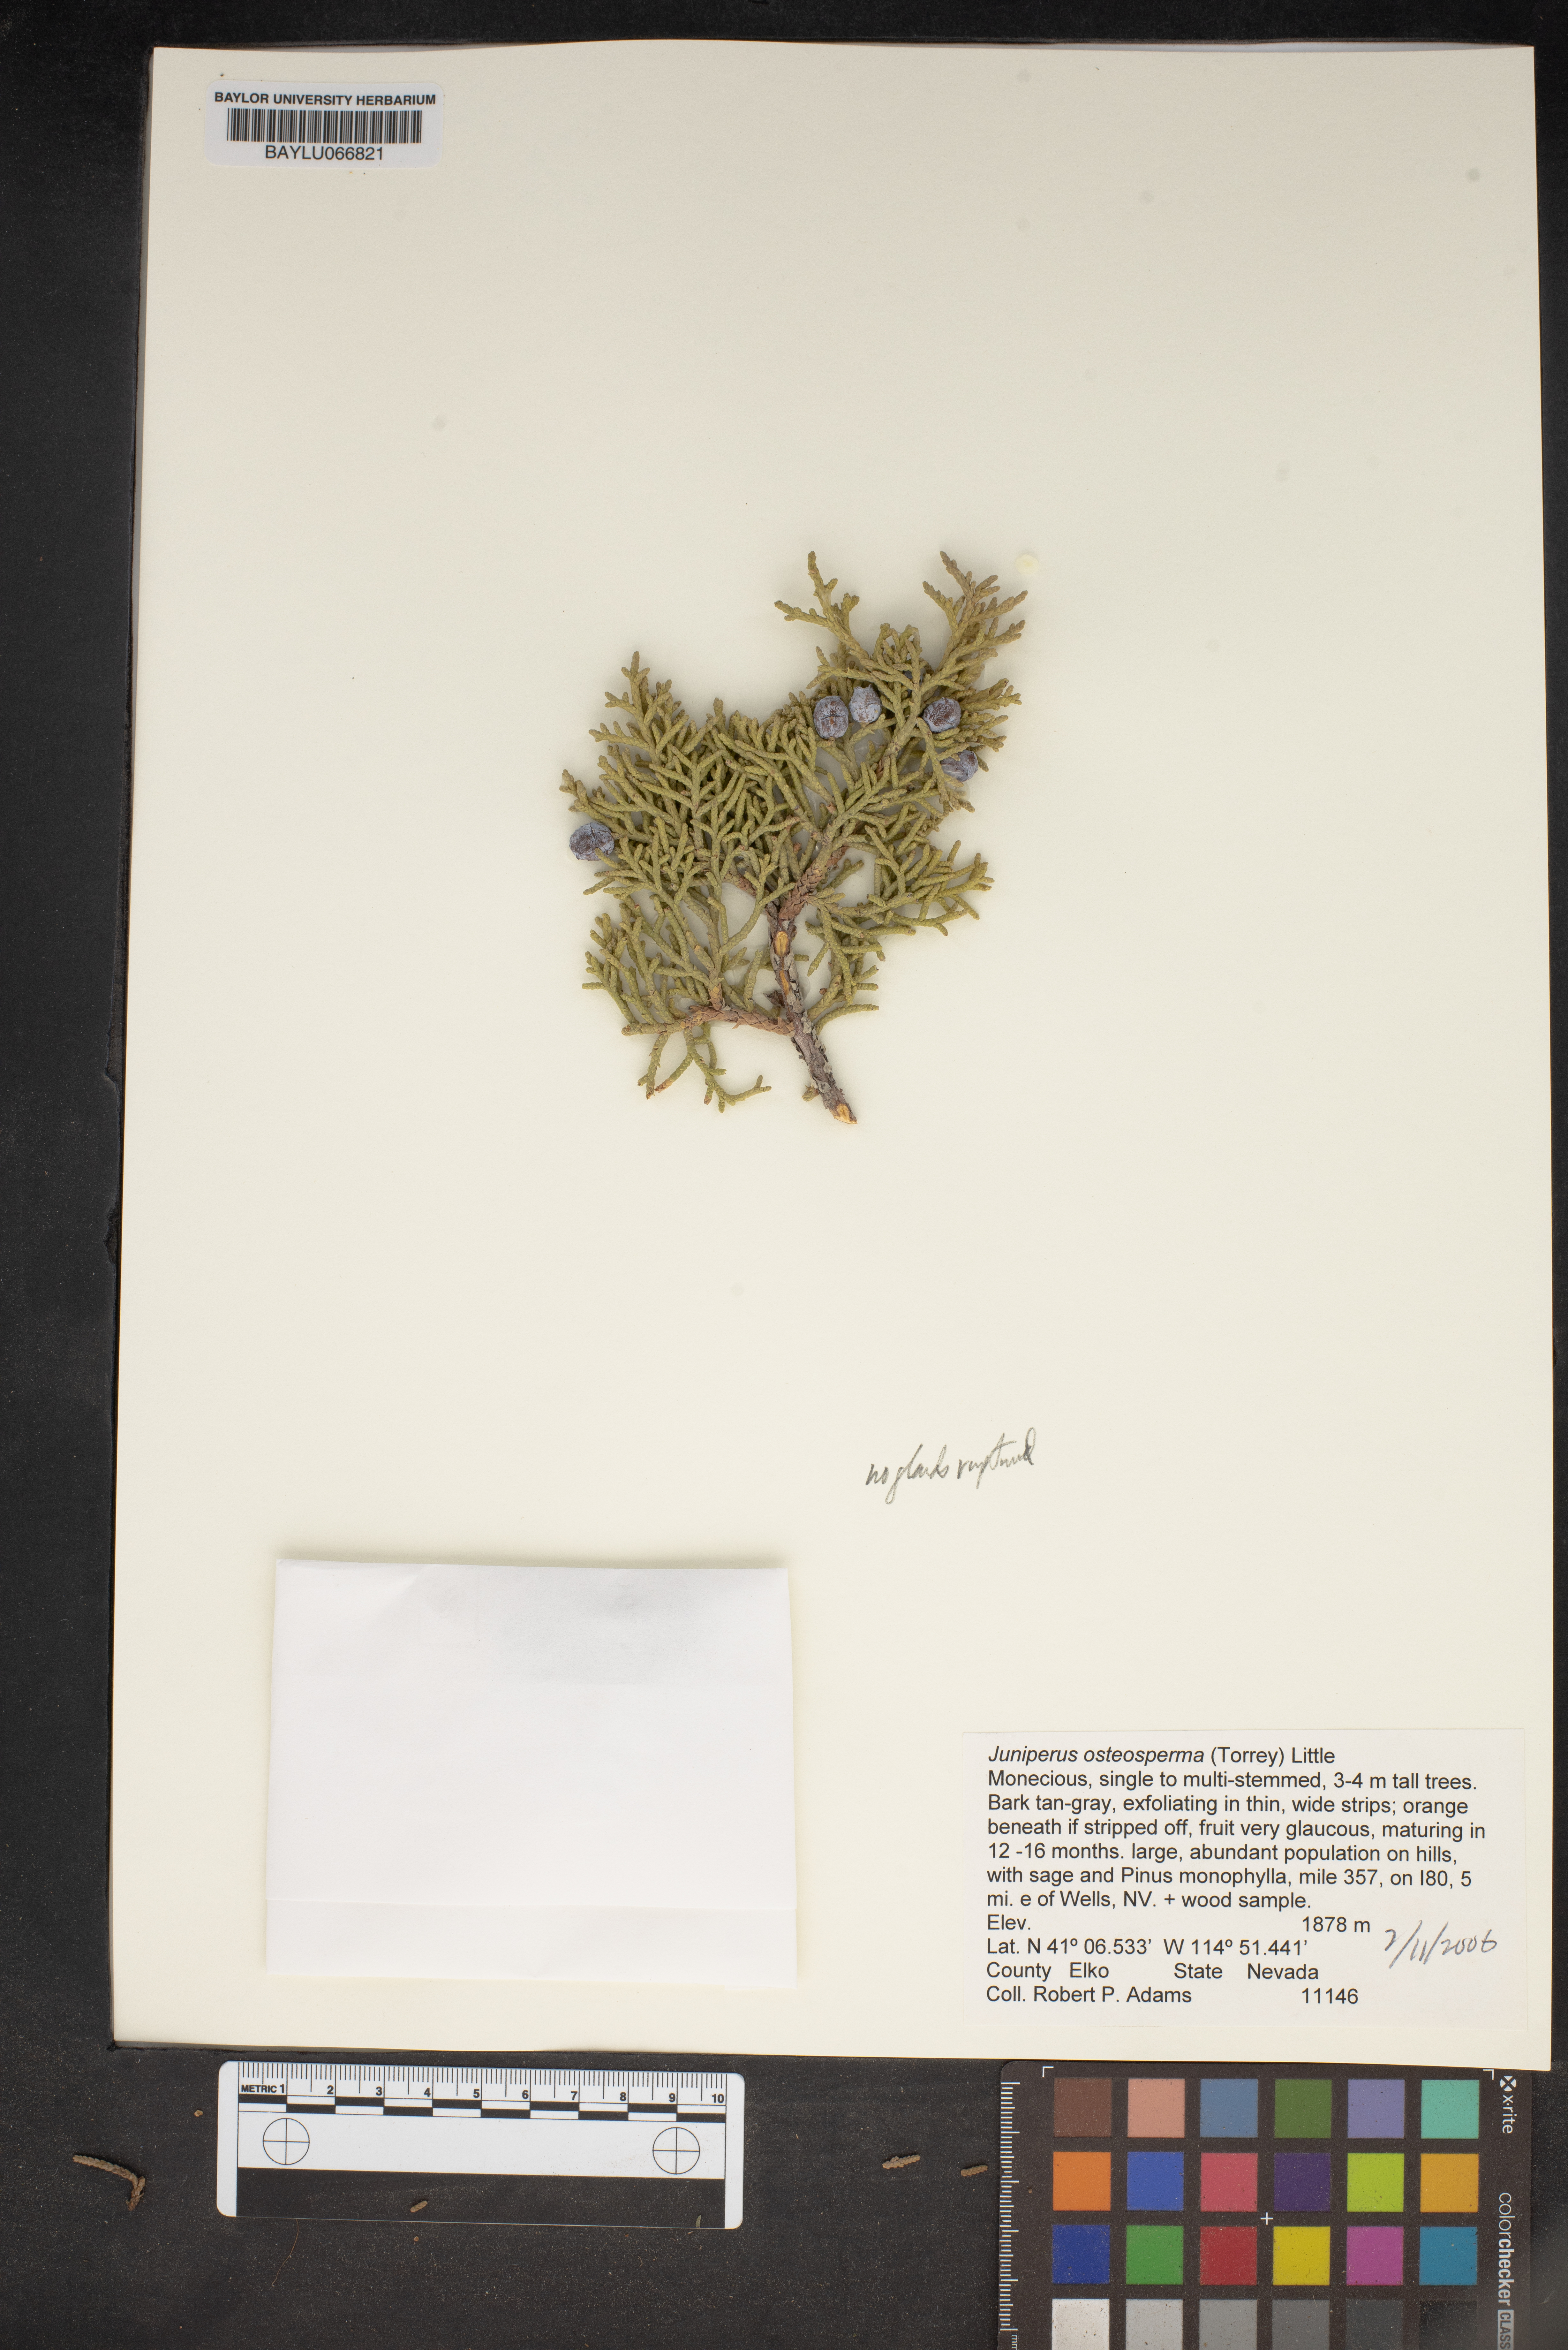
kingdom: Plantae
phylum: Tracheophyta
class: Pinopsida
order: Pinales
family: Cupressaceae
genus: Juniperus
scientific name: Juniperus osteosperma
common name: Utah juniper
